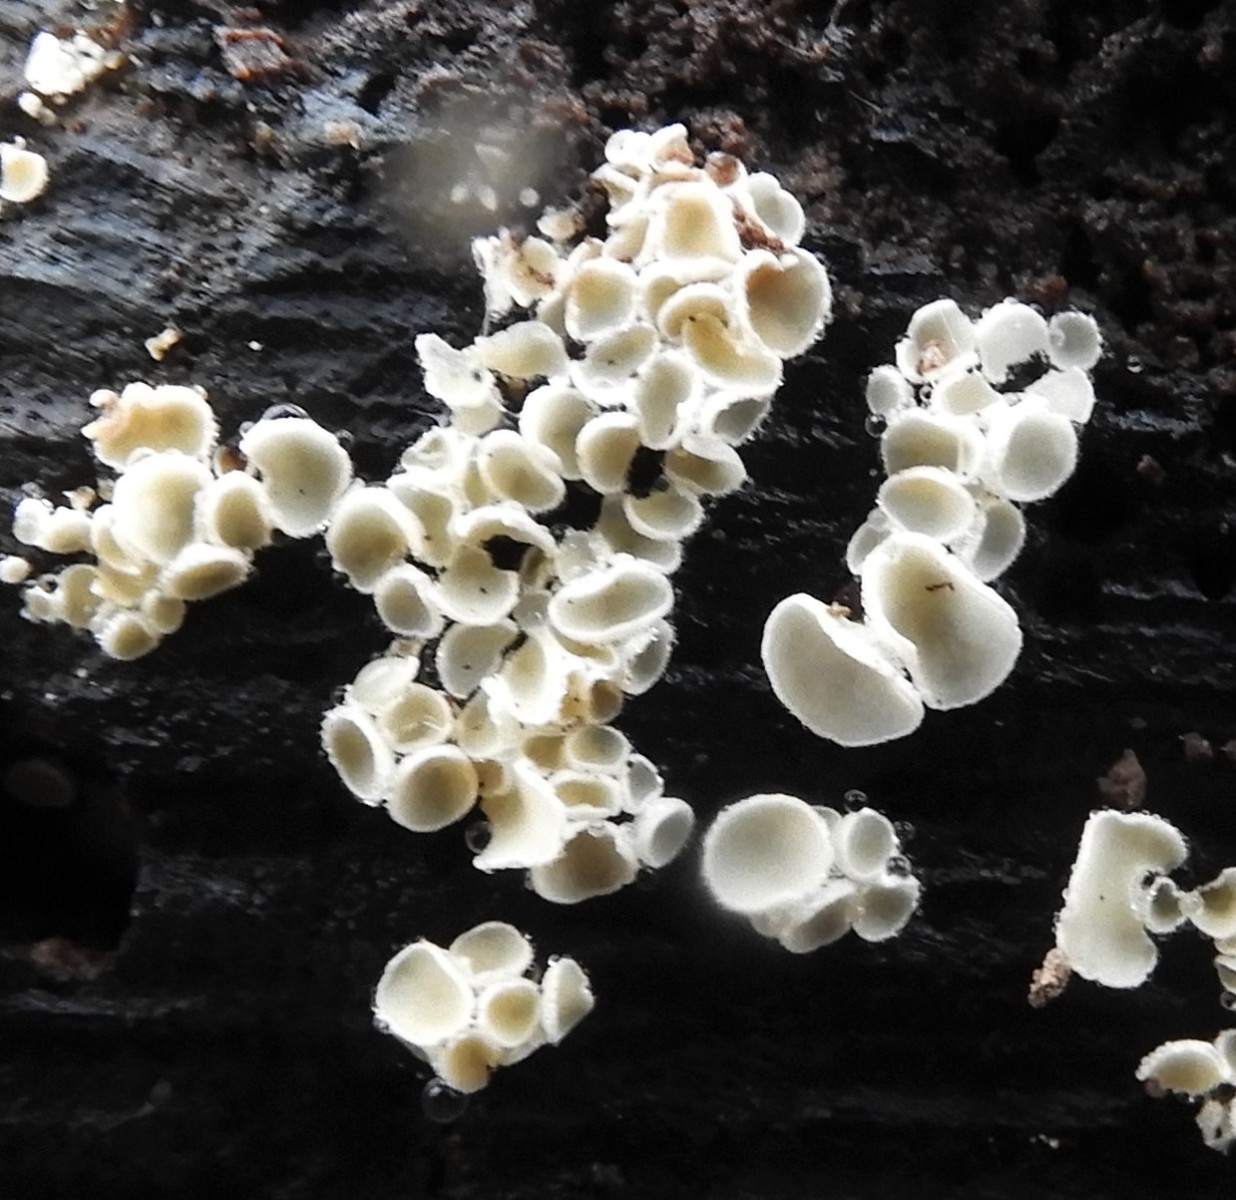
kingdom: Fungi
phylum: Ascomycota
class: Leotiomycetes
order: Helotiales
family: Lachnaceae
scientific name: Lachnaceae
